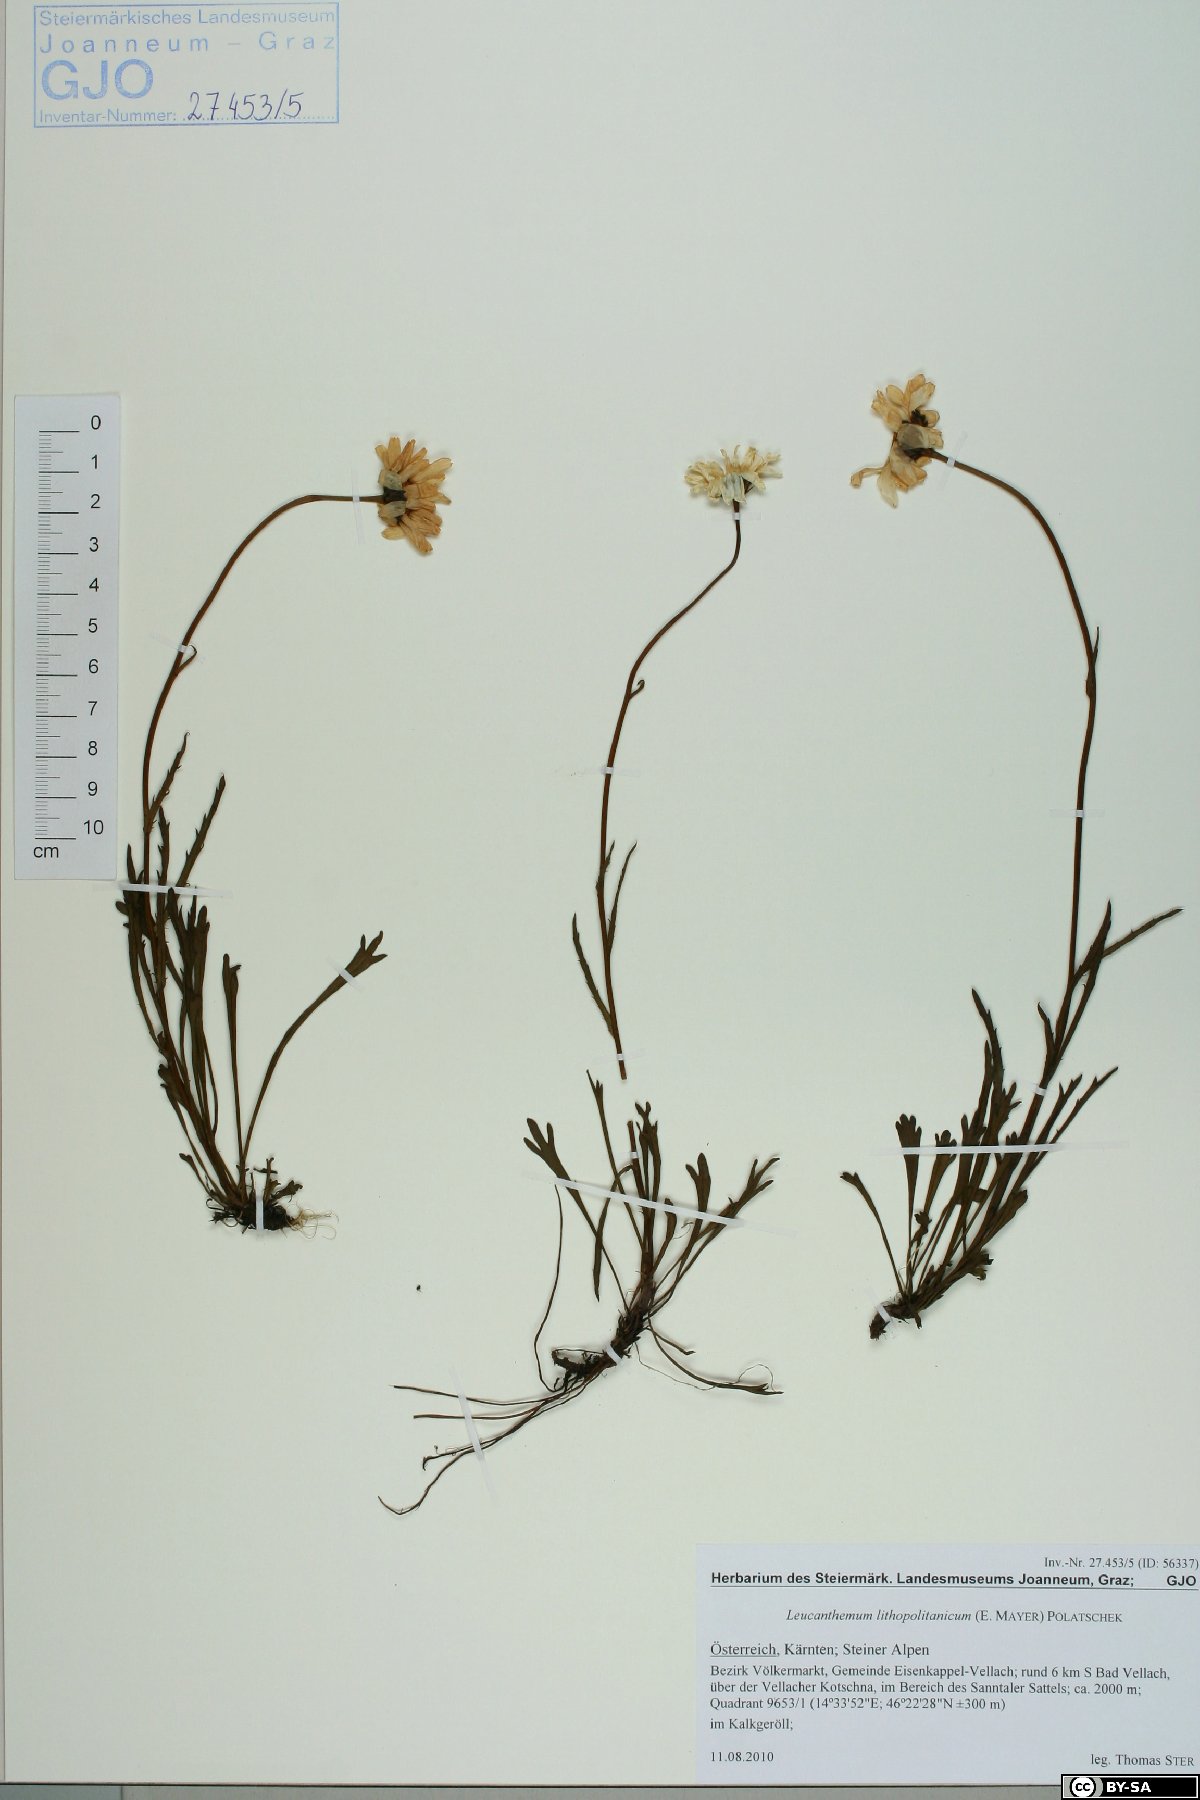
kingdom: Plantae
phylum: Tracheophyta
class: Magnoliopsida
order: Asterales
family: Asteraceae
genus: Leucanthemum
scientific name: Leucanthemum lithopolitanicum
